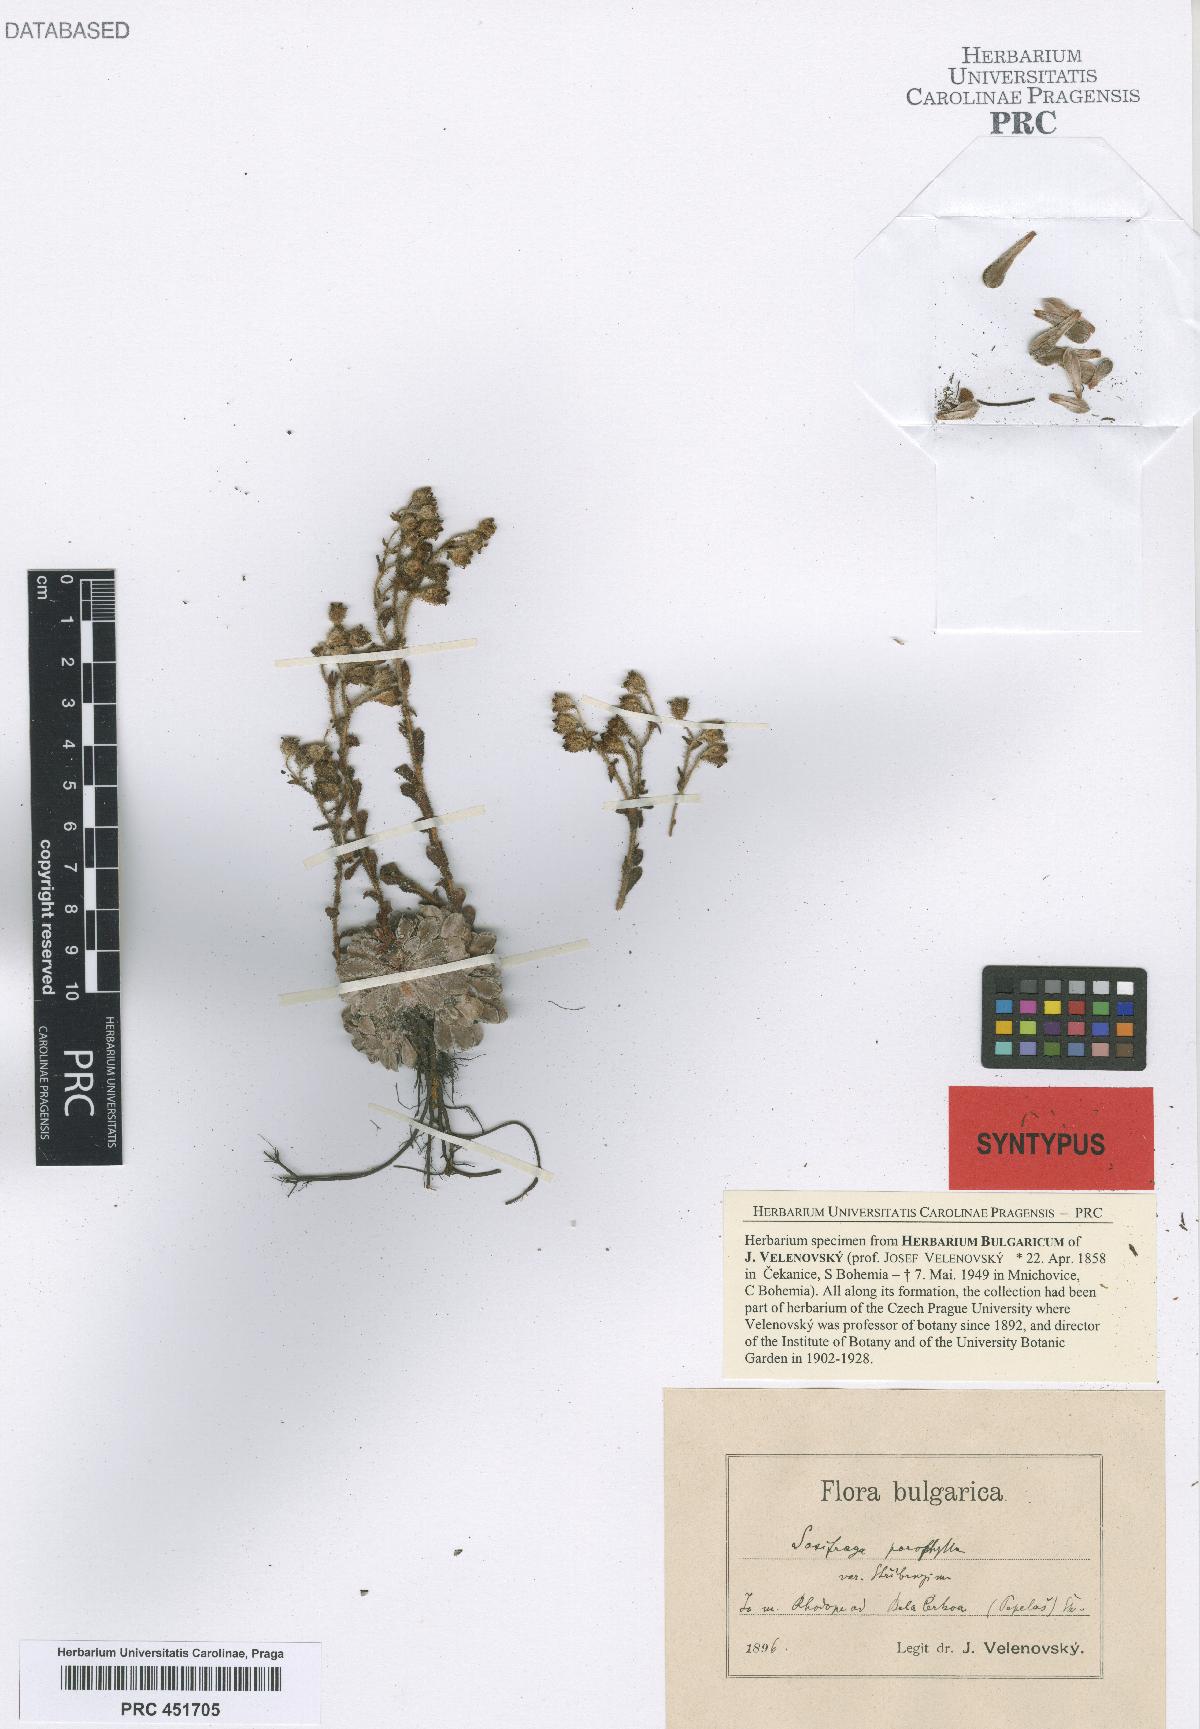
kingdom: Plantae
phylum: Tracheophyta
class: Magnoliopsida
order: Saxifragales
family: Saxifragaceae
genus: Saxifraga
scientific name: Saxifraga stribrnyi
